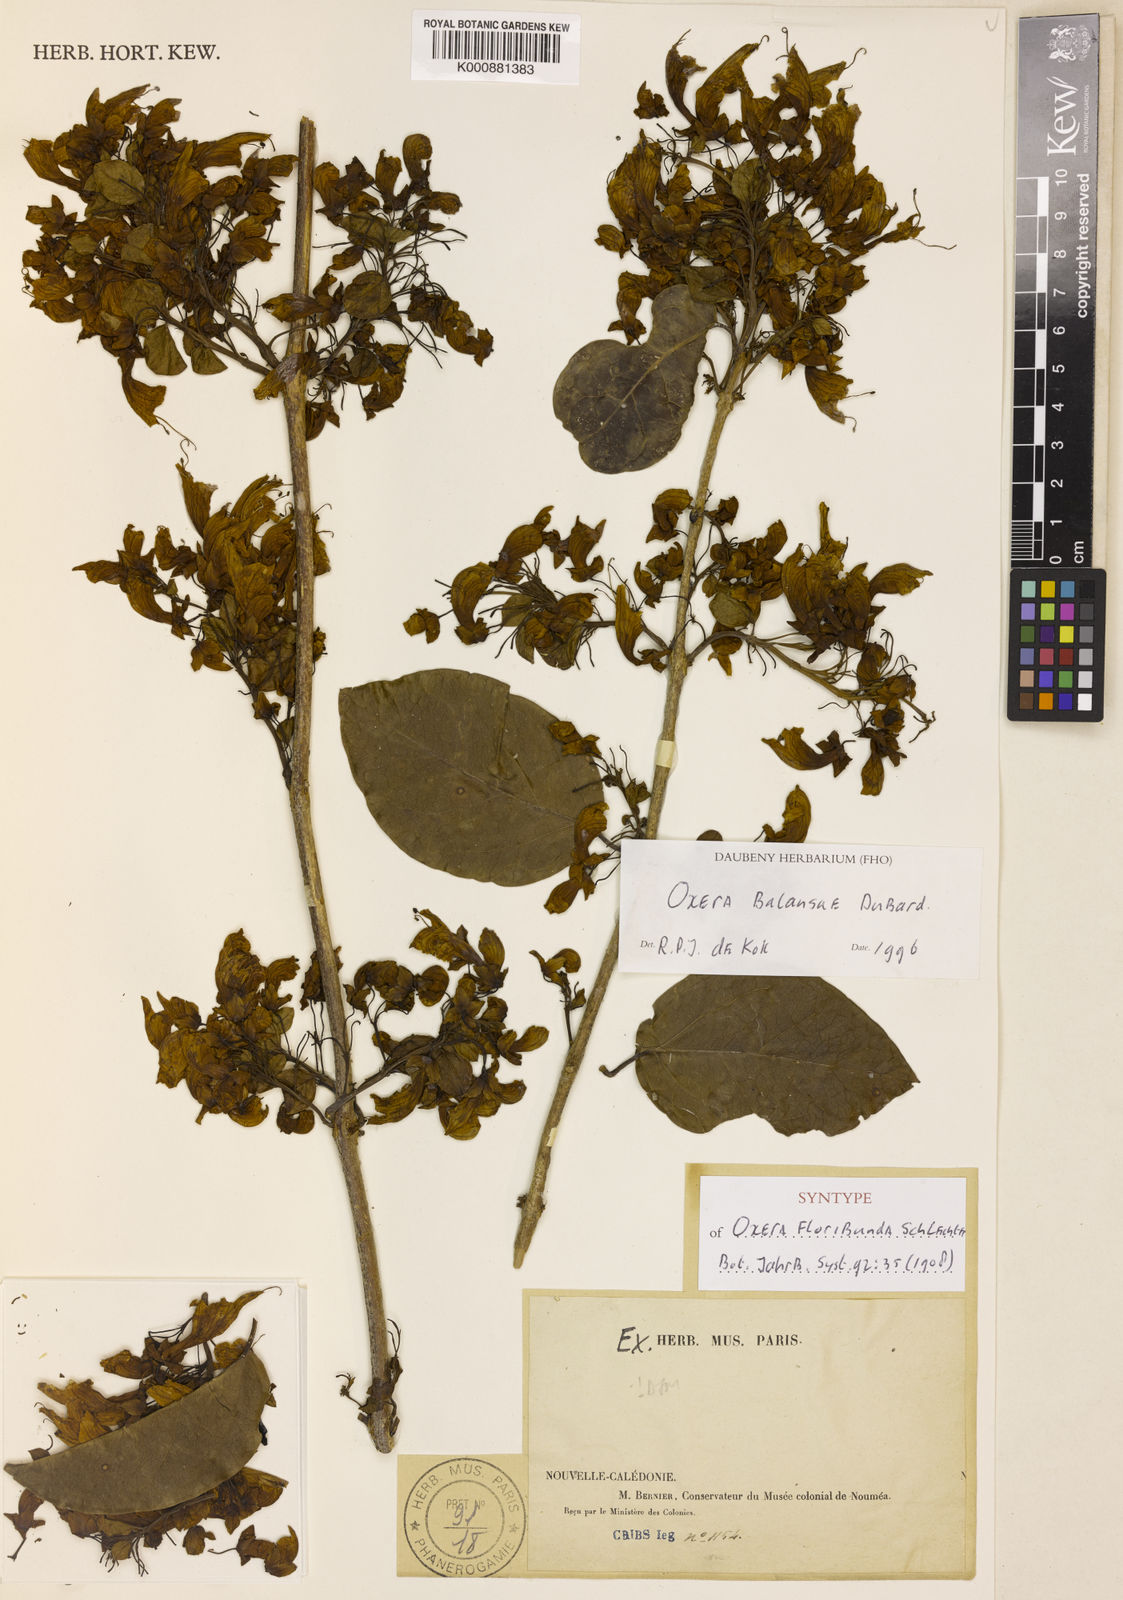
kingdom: Plantae
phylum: Tracheophyta
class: Magnoliopsida
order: Lamiales
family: Lamiaceae
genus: Oxera
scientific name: Oxera balansae
